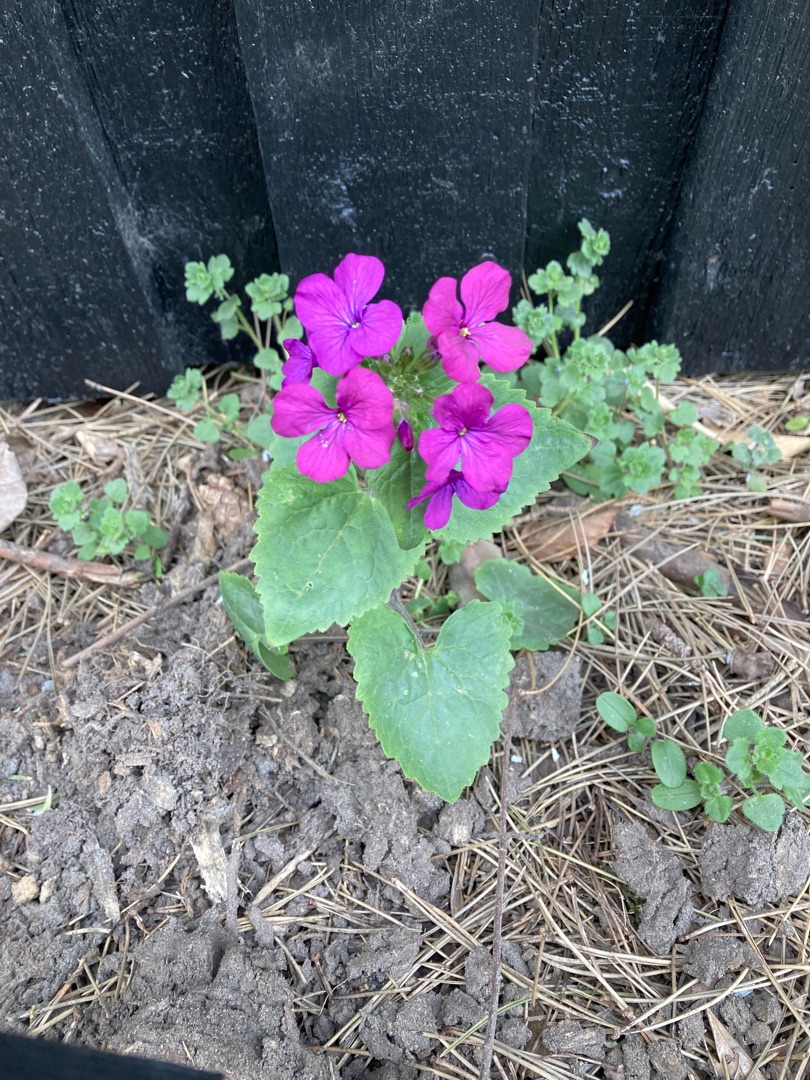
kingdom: Plantae
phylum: Tracheophyta
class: Magnoliopsida
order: Brassicales
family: Brassicaceae
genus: Lunaria
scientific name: Lunaria annua
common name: Judaspenge
